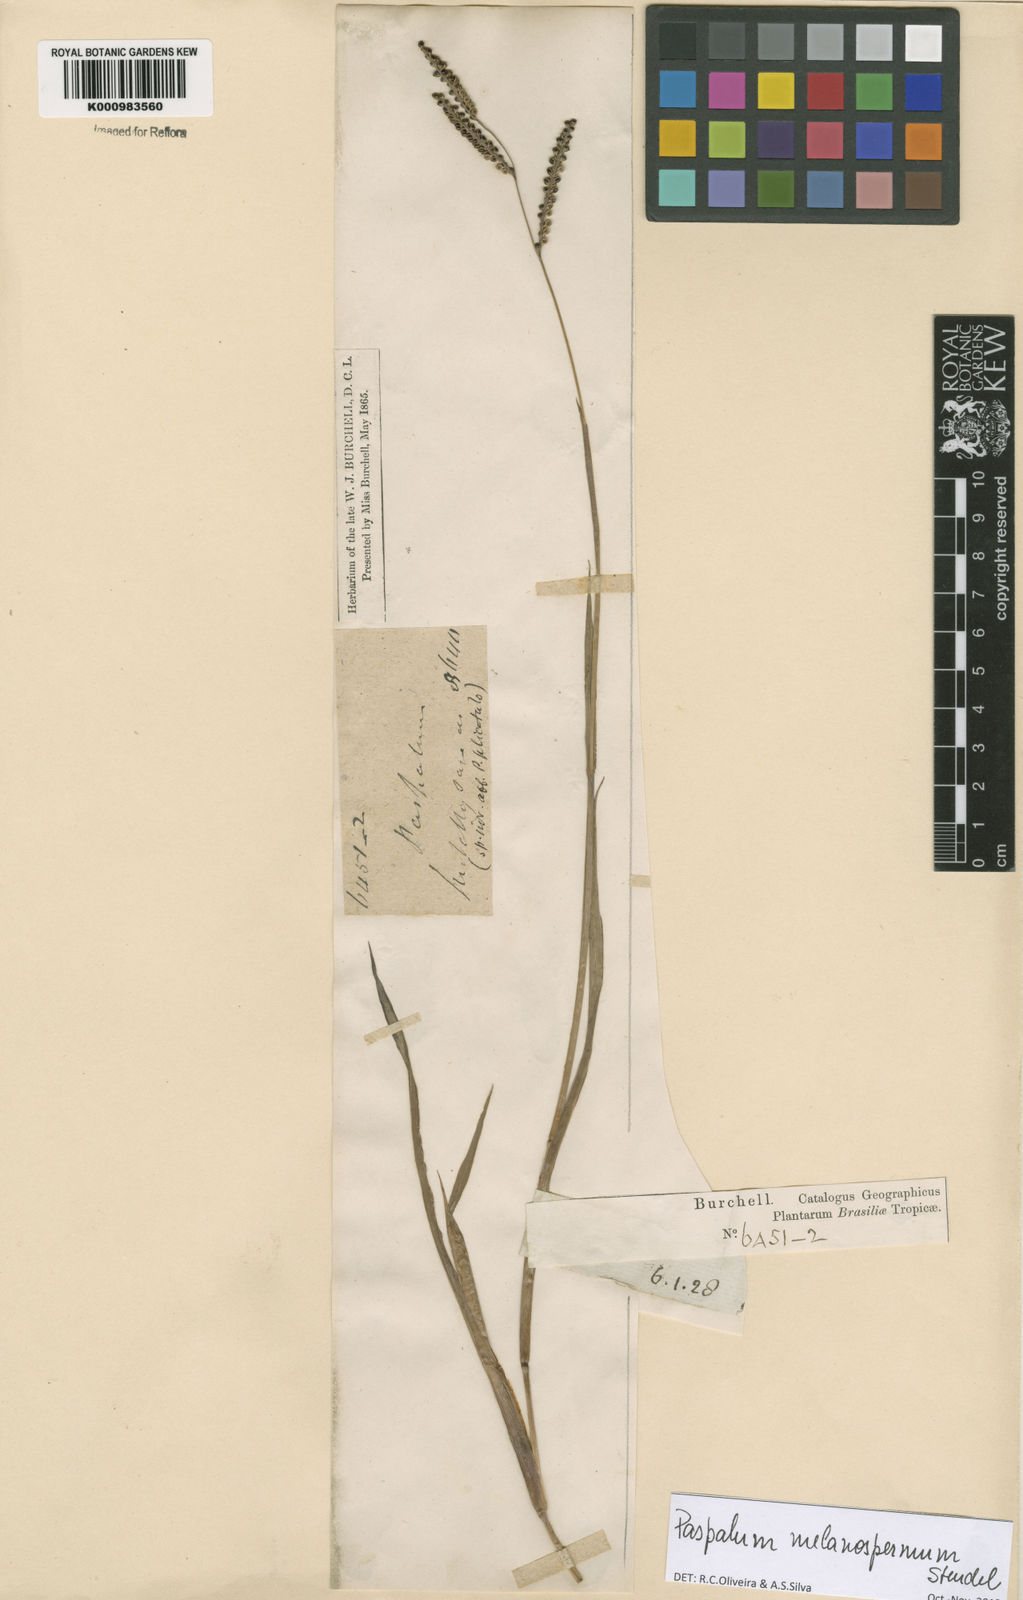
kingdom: Plantae
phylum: Tracheophyta
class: Liliopsida
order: Poales
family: Poaceae
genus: Paspalum
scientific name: Paspalum melanospermum
